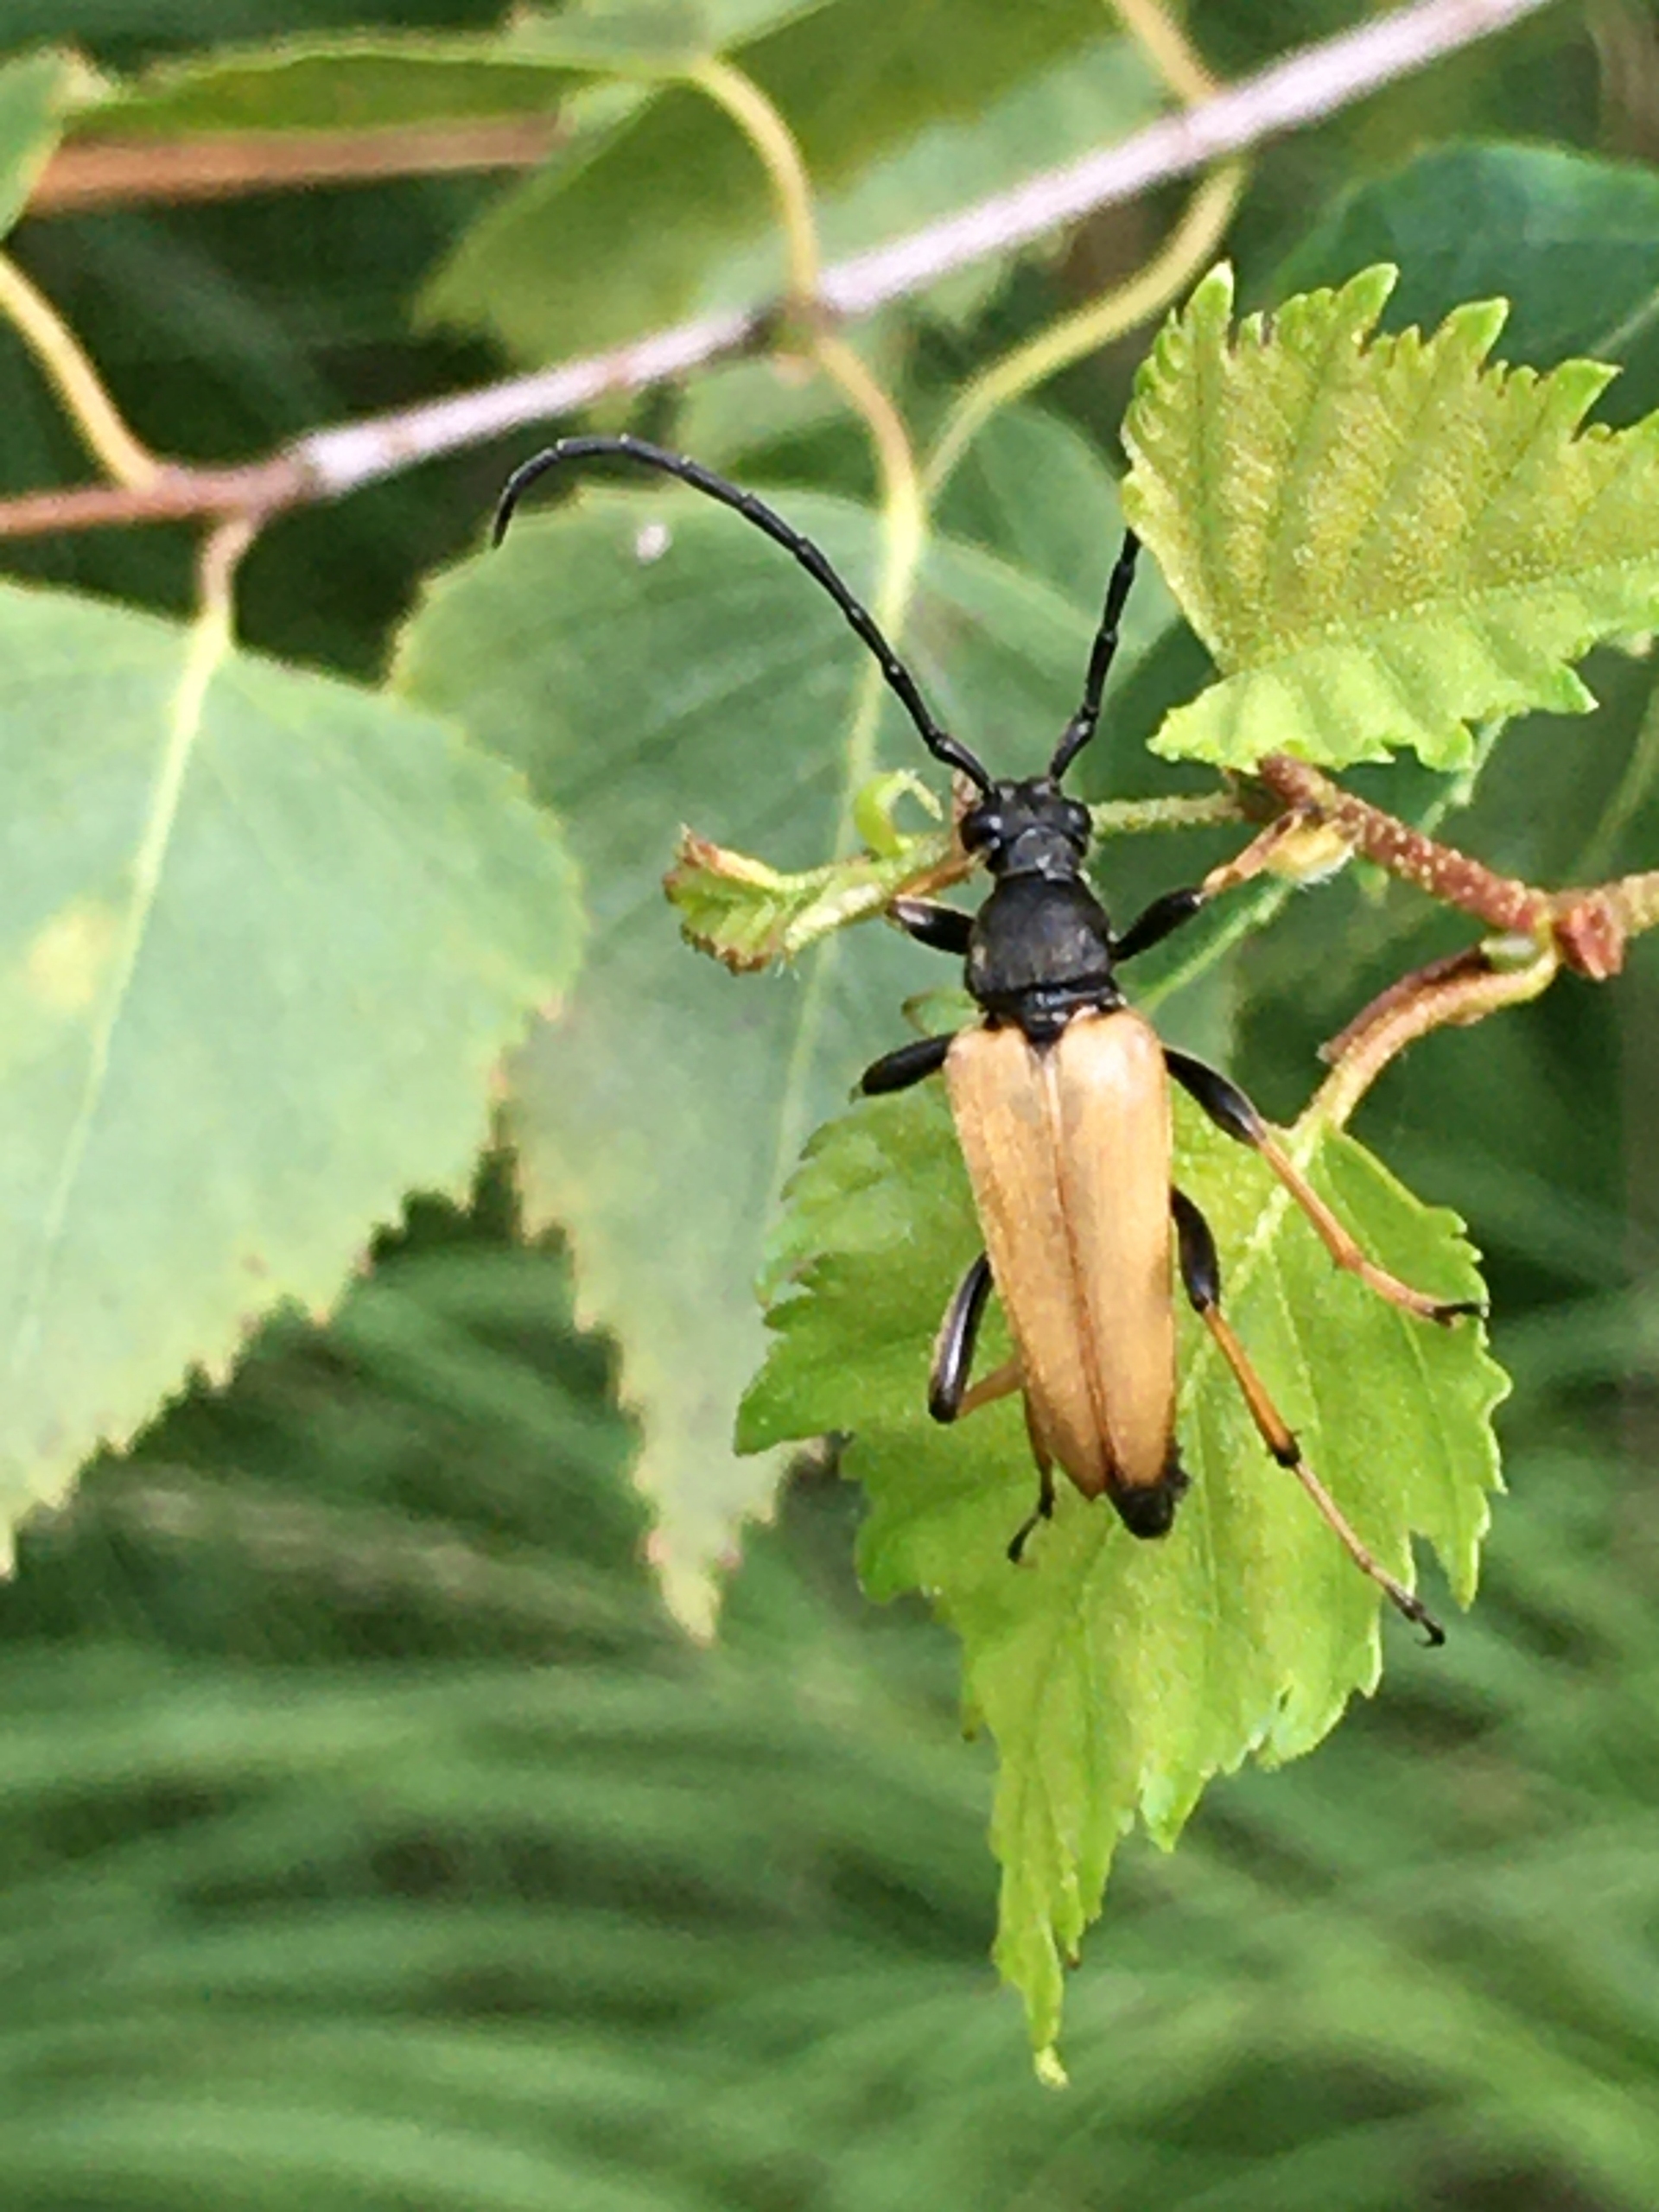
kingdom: Animalia
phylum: Arthropoda
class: Insecta
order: Coleoptera
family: Cerambycidae
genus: Stictoleptura
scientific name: Stictoleptura rubra
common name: Rød blomsterbuk
